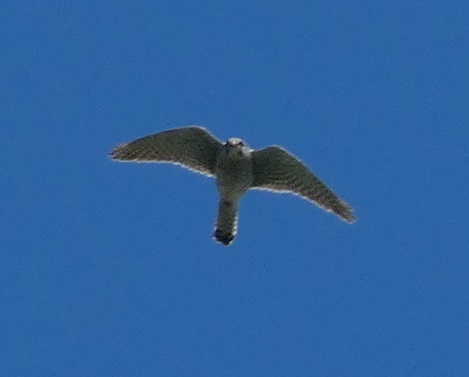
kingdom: Animalia
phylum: Chordata
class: Aves
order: Falconiformes
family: Falconidae
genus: Falco
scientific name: Falco tinnunculus
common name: Tårnfalk
